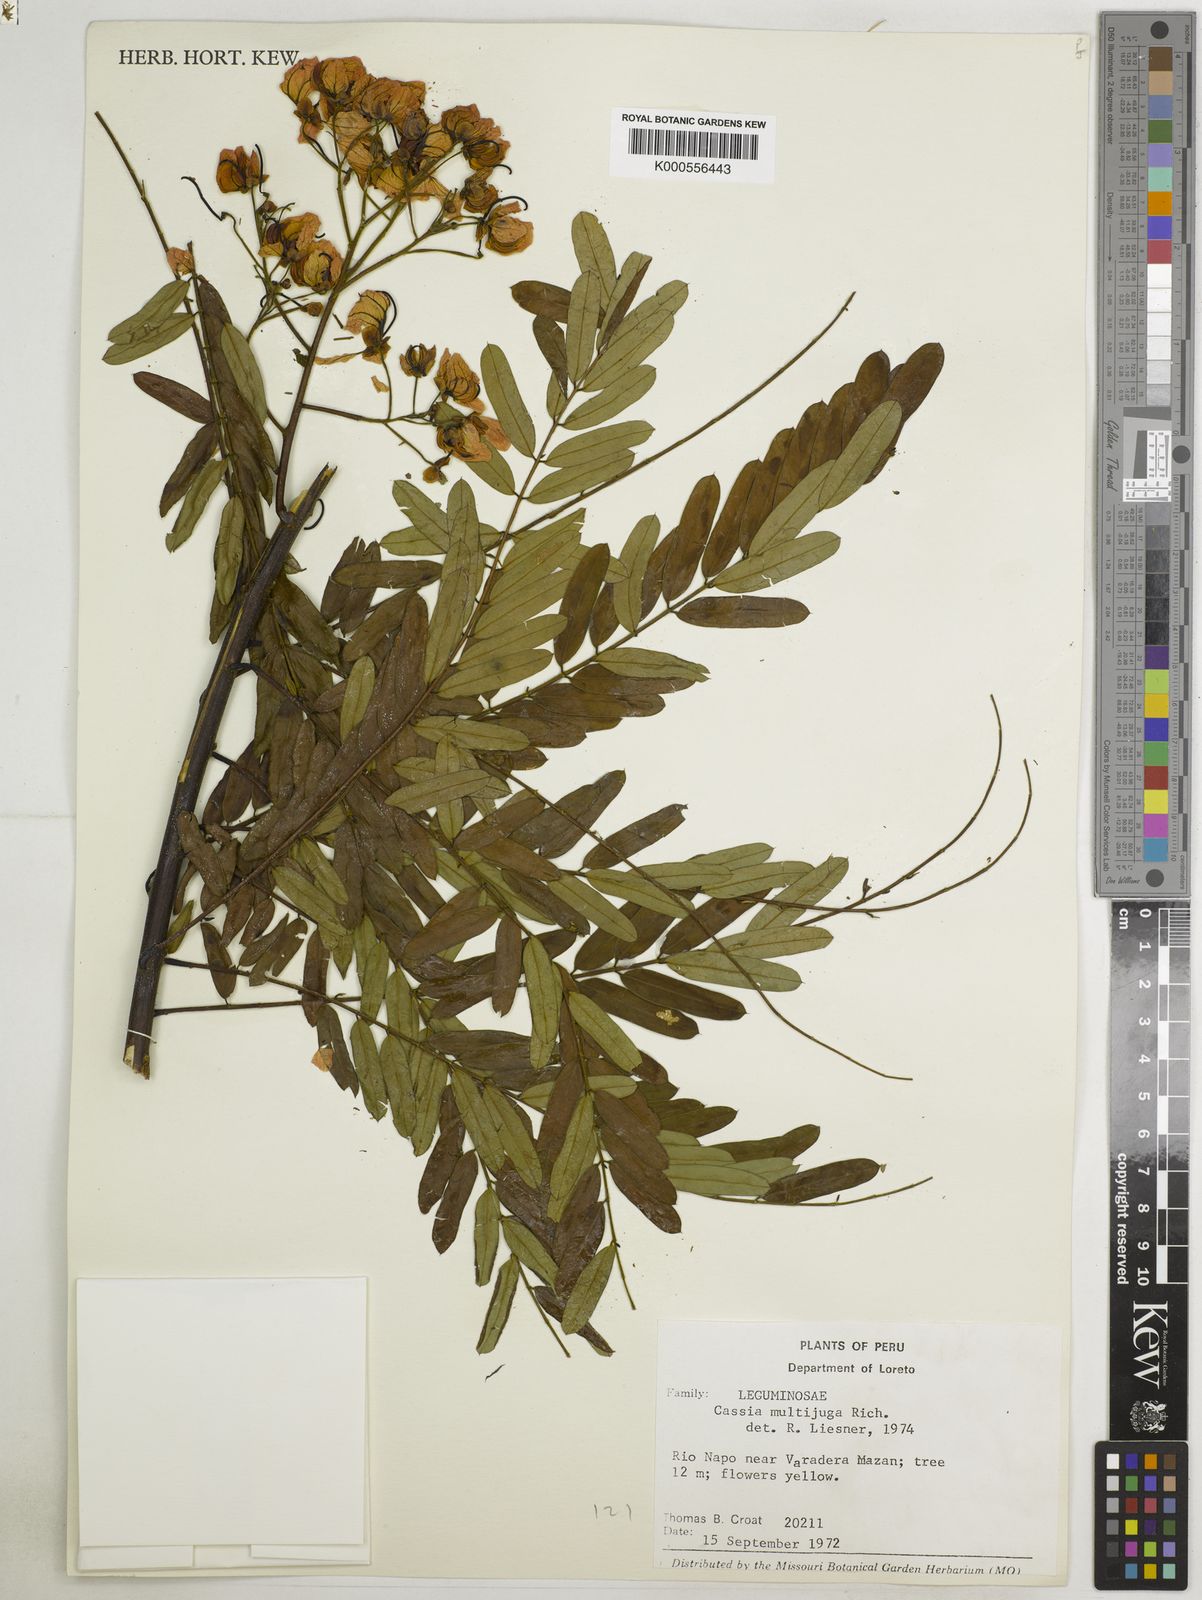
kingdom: Plantae
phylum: Tracheophyta
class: Magnoliopsida
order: Fabales
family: Fabaceae
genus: Senna
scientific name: Senna multijuga
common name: False sicklepod
